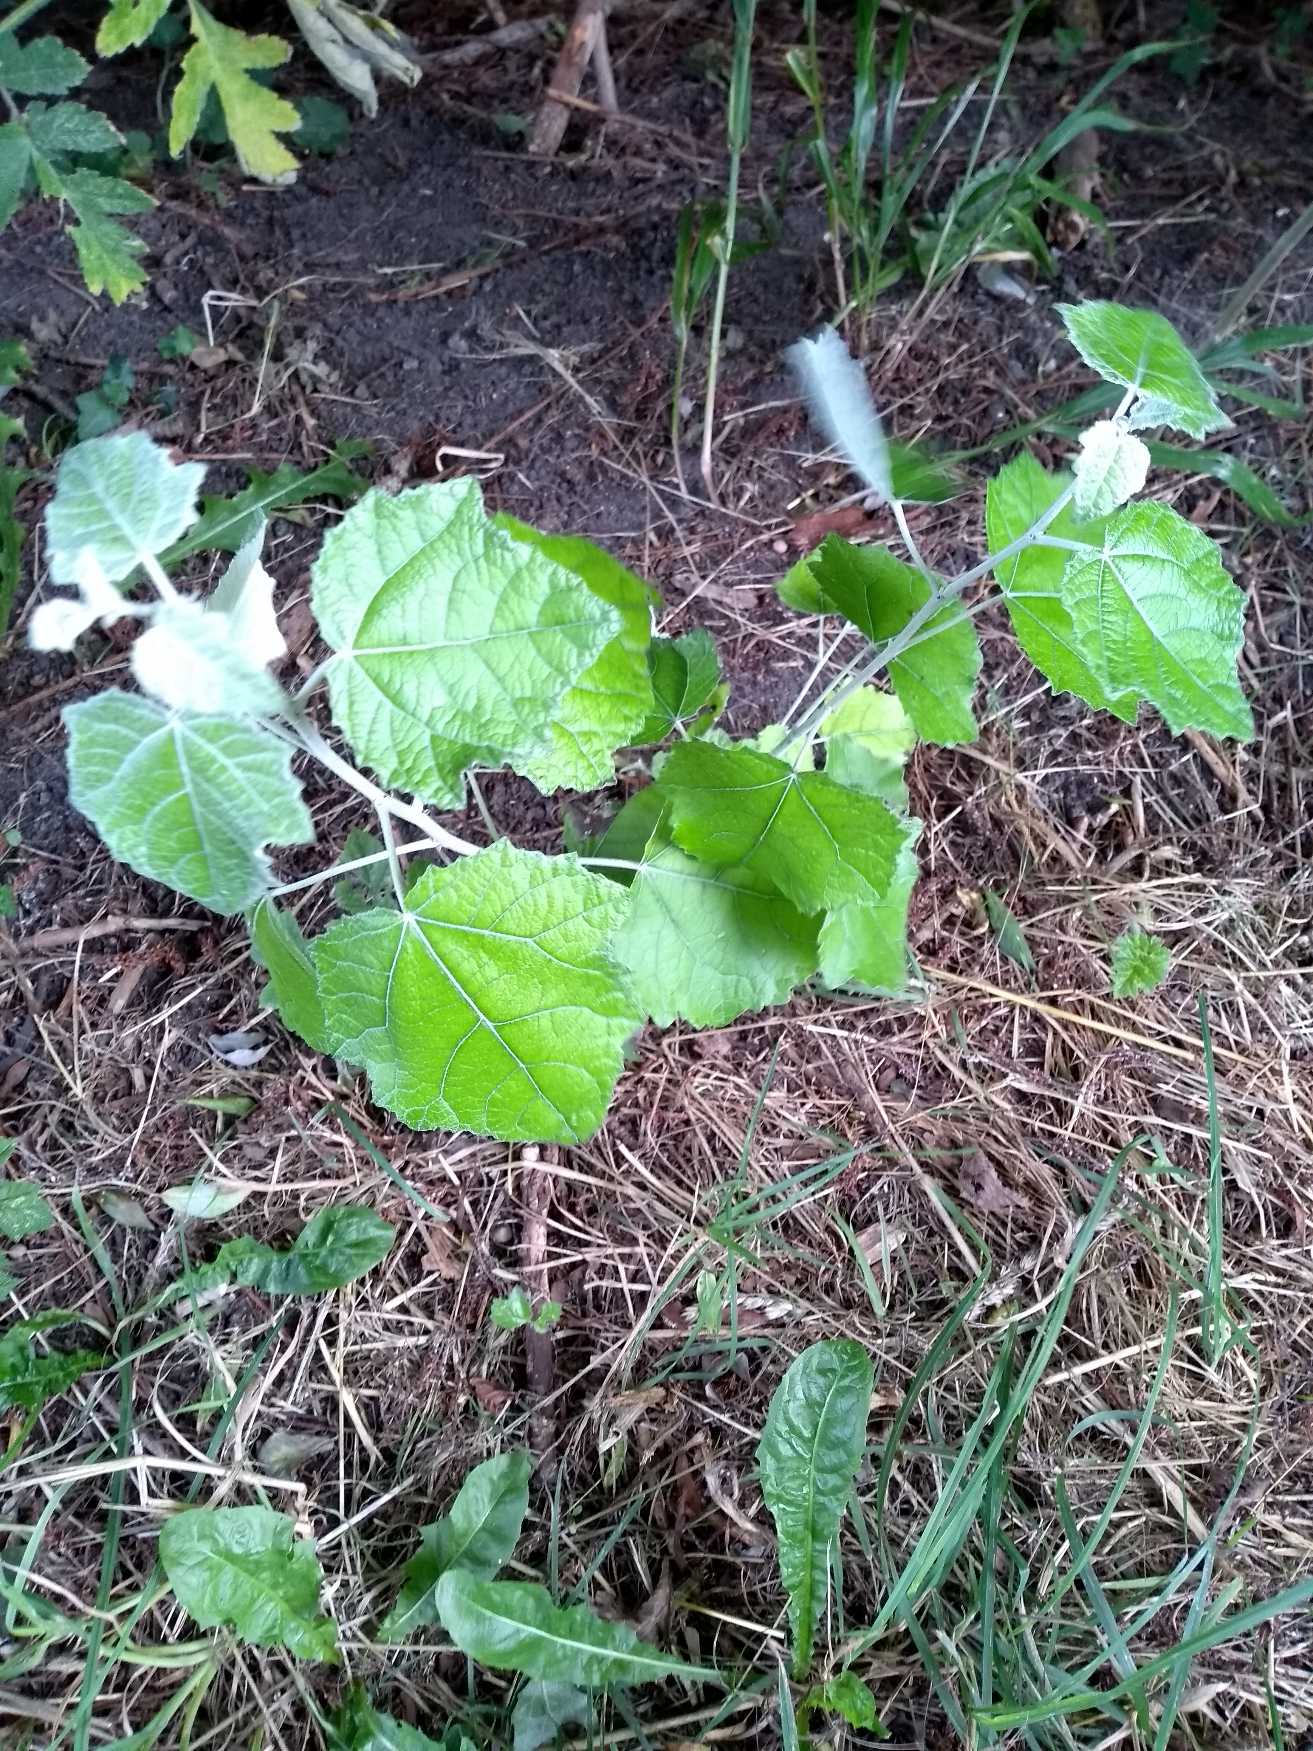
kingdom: Plantae
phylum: Tracheophyta
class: Magnoliopsida
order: Malpighiales
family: Salicaceae
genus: Populus
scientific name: Populus alba
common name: Sølv-poppel
